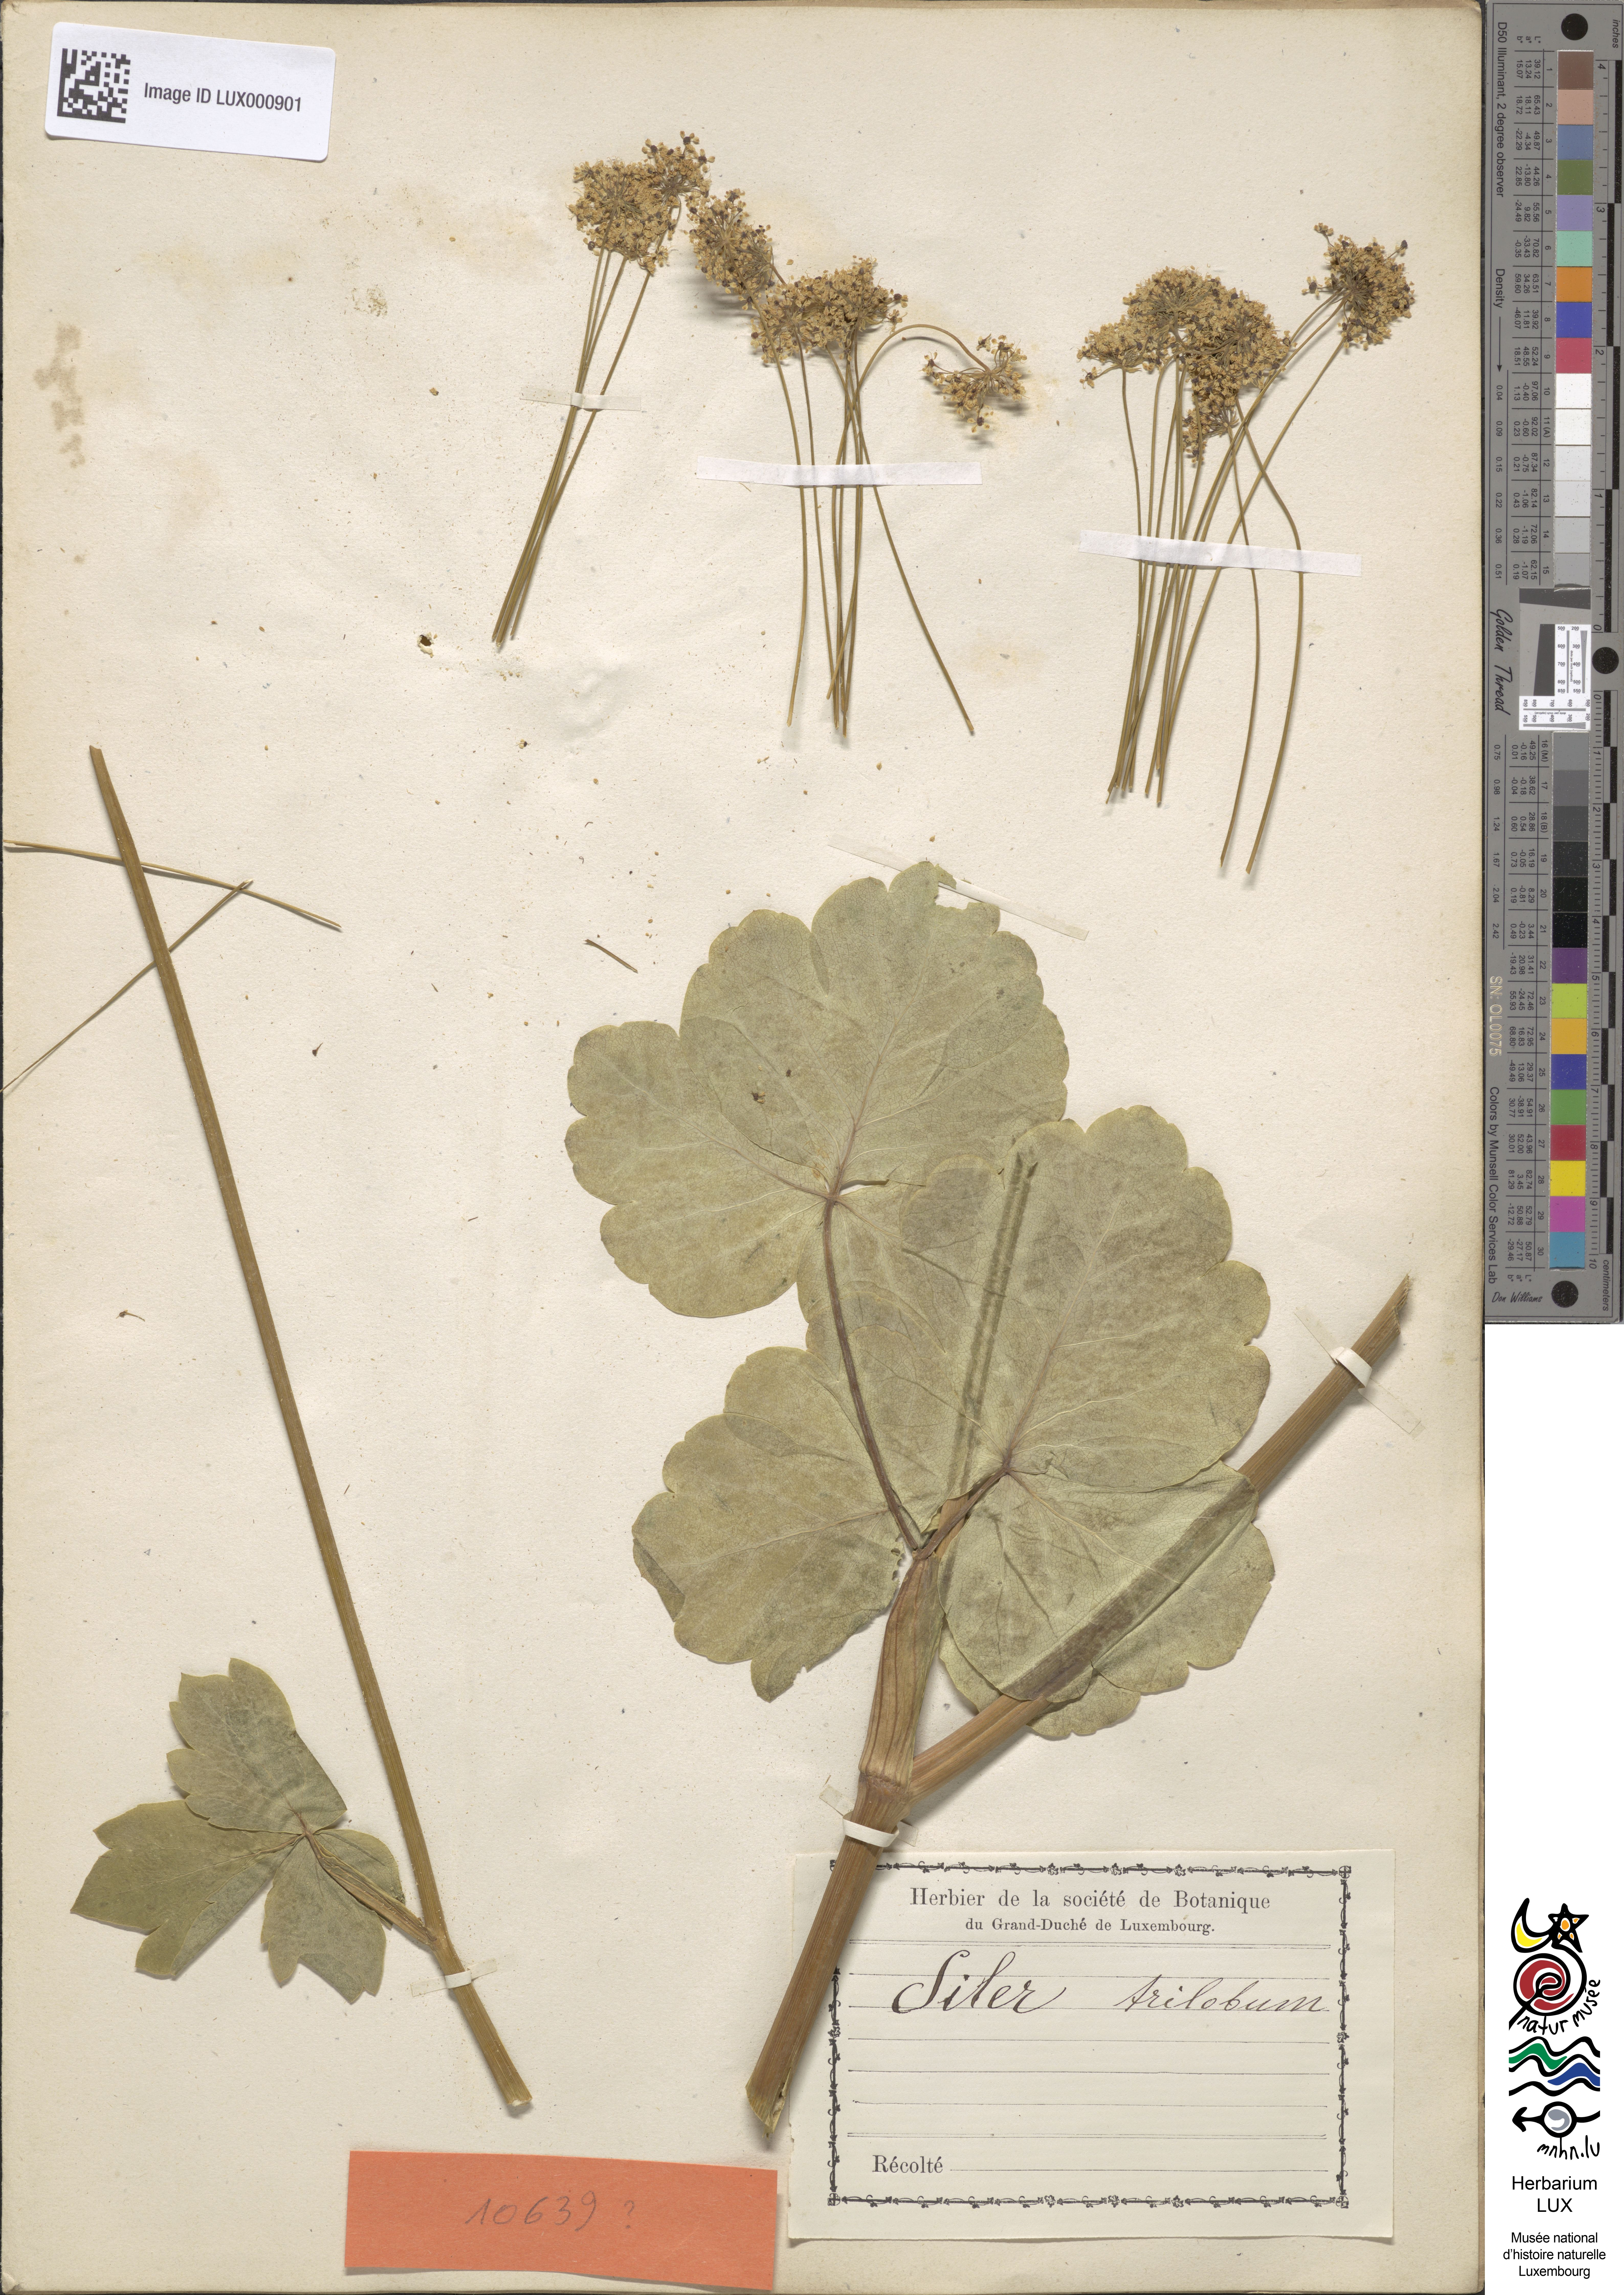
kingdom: Plantae
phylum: Tracheophyta
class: Magnoliopsida
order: Apiales
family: Apiaceae
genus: Laser
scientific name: Laser trilobum
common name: Laser
